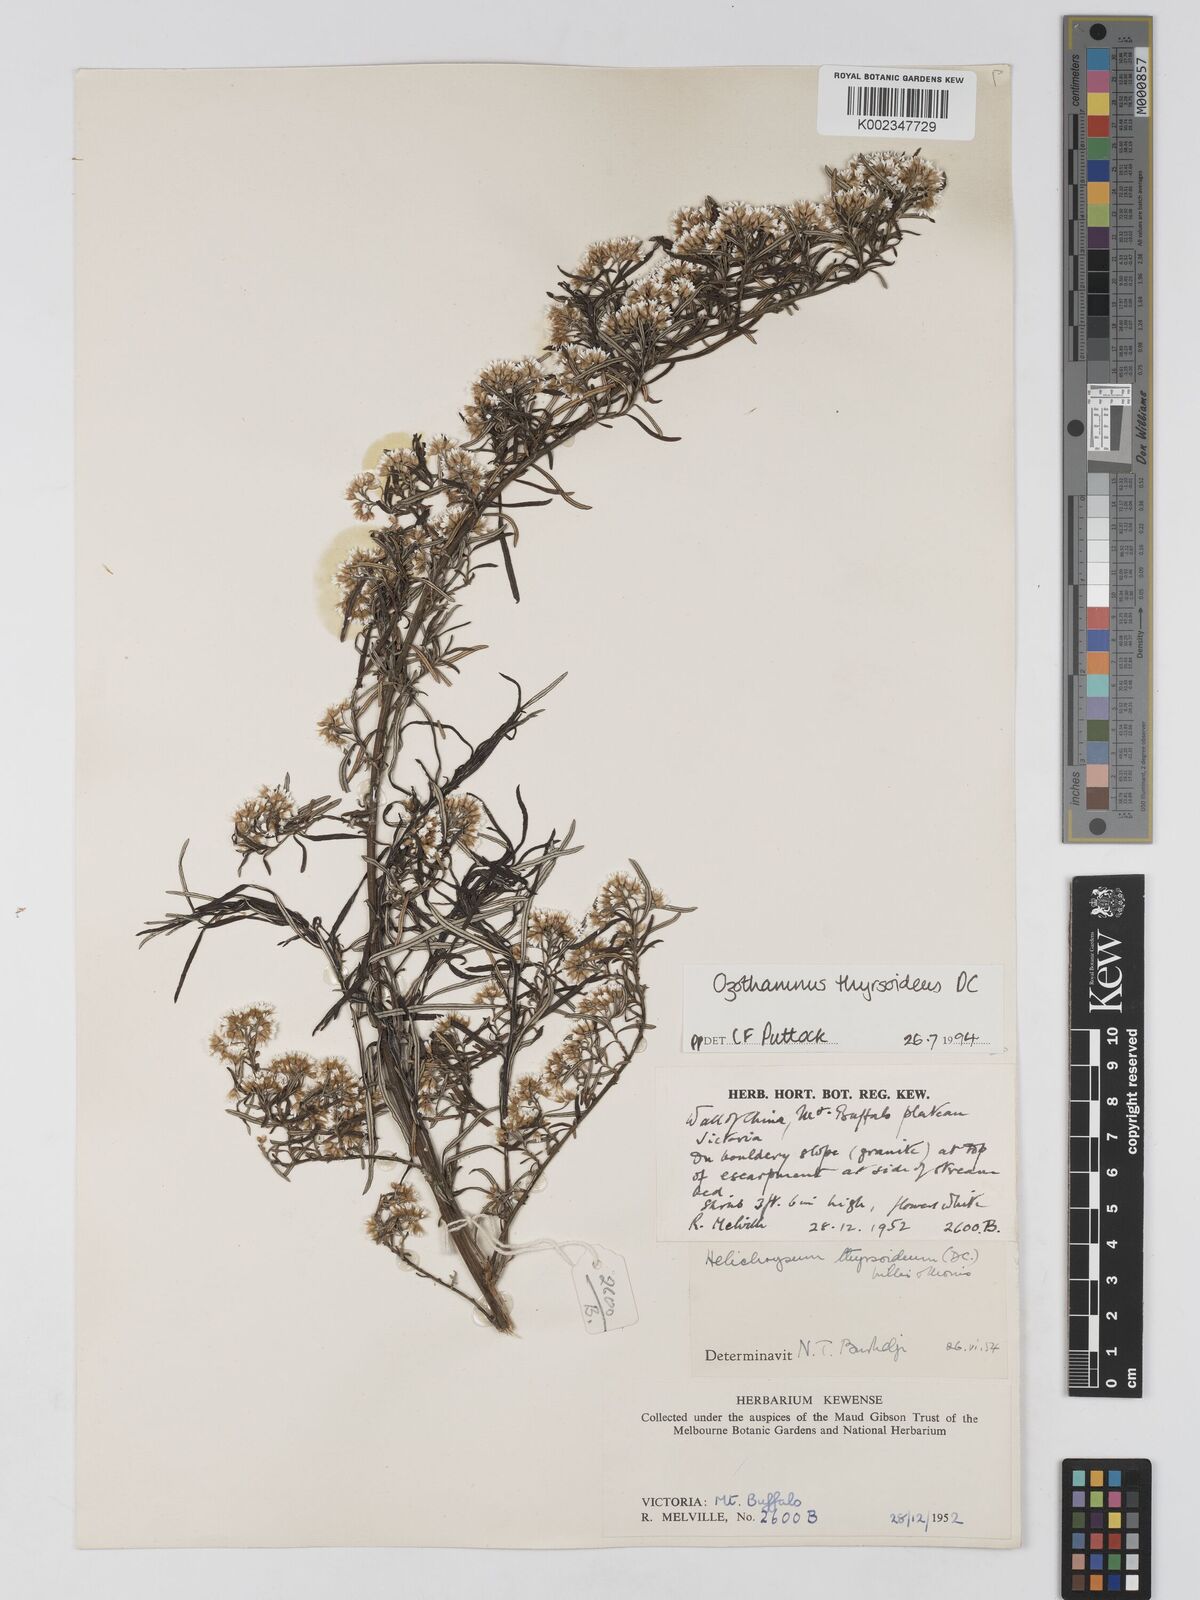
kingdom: Plantae
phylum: Tracheophyta
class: Magnoliopsida
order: Asterales
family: Asteraceae
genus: Ozothamnus
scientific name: Ozothamnus thyrsoideus
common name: Snow-in-summer
